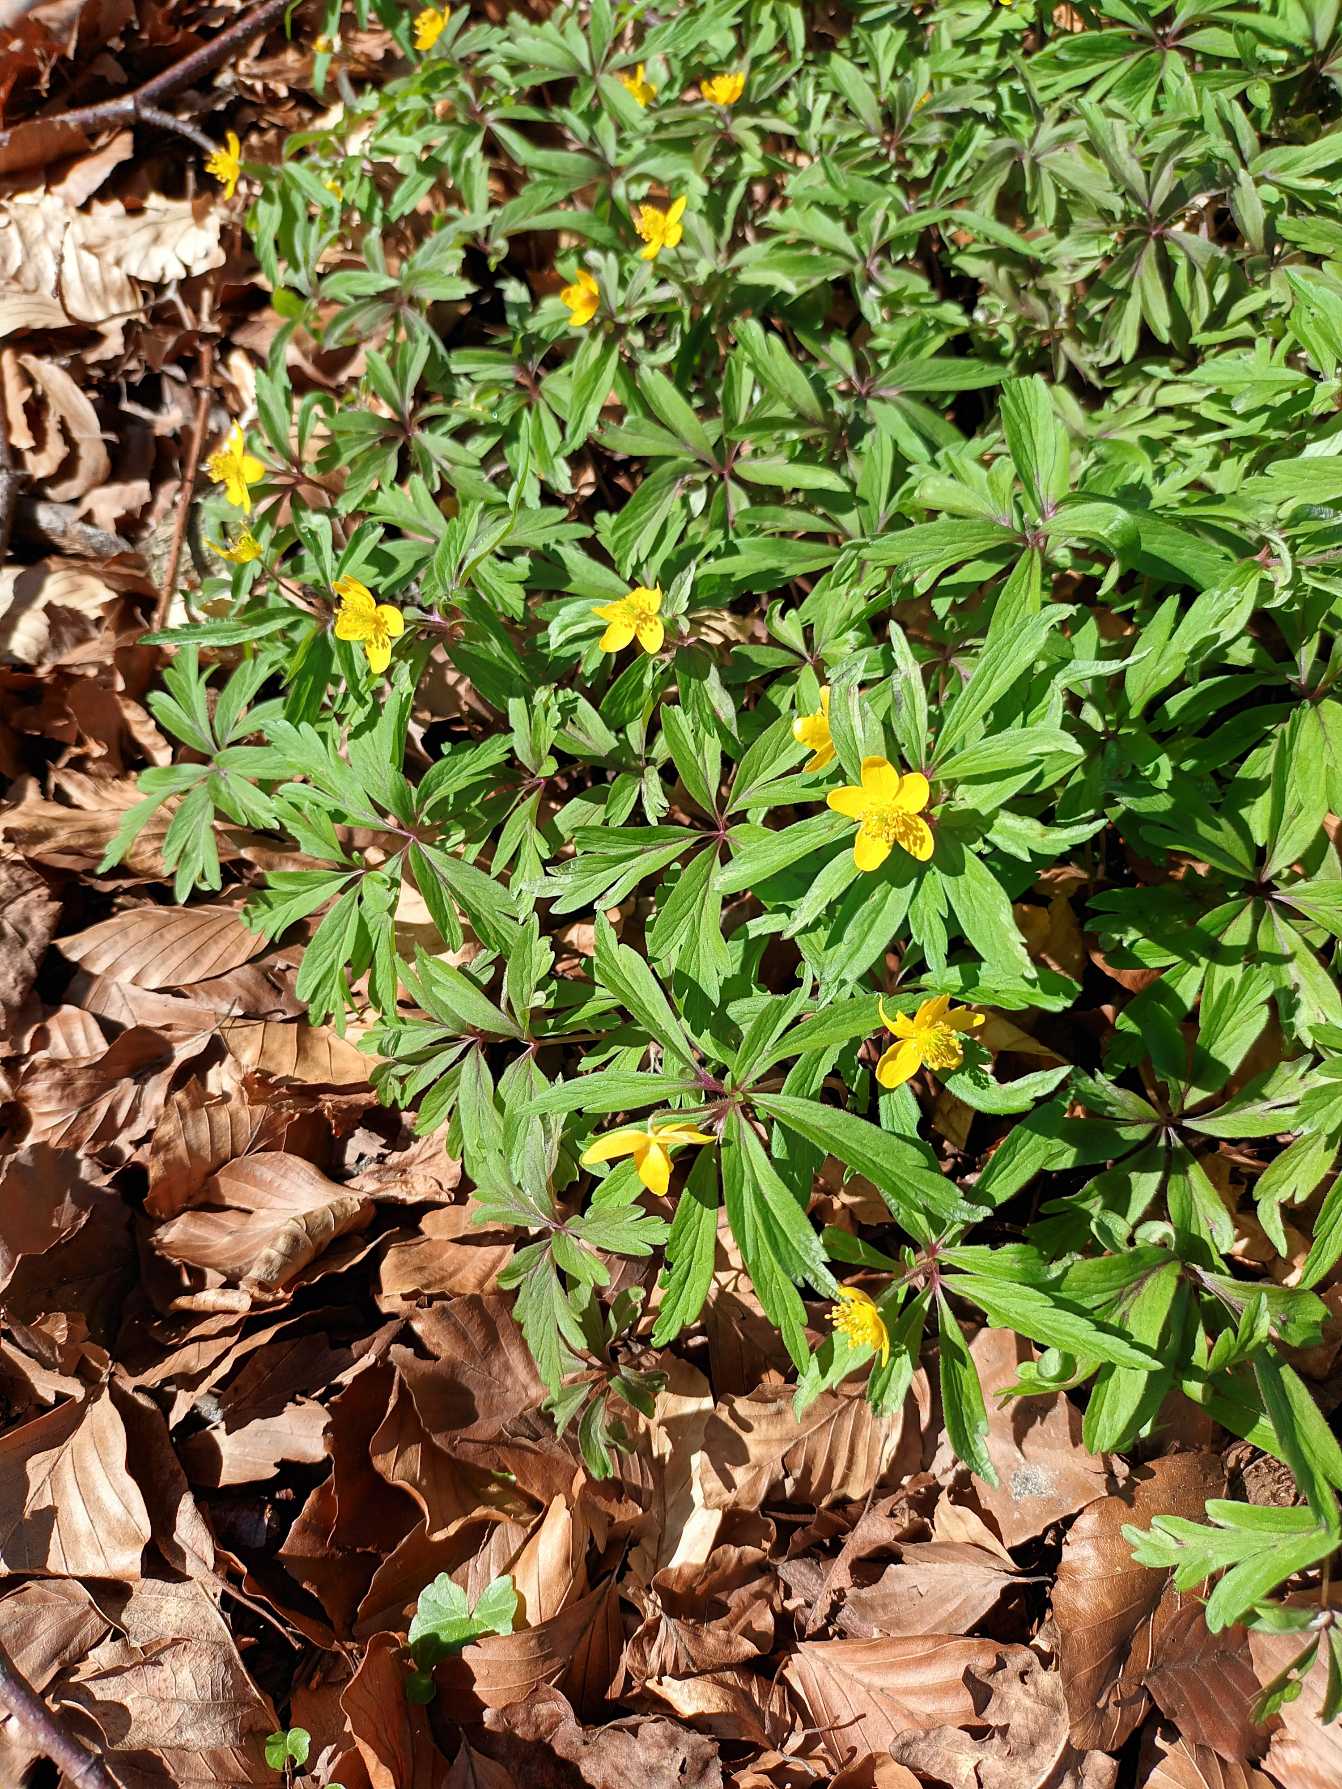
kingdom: Plantae
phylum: Tracheophyta
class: Magnoliopsida
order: Ranunculales
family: Ranunculaceae
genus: Anemone
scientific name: Anemone ranunculoides
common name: Gul anemone
